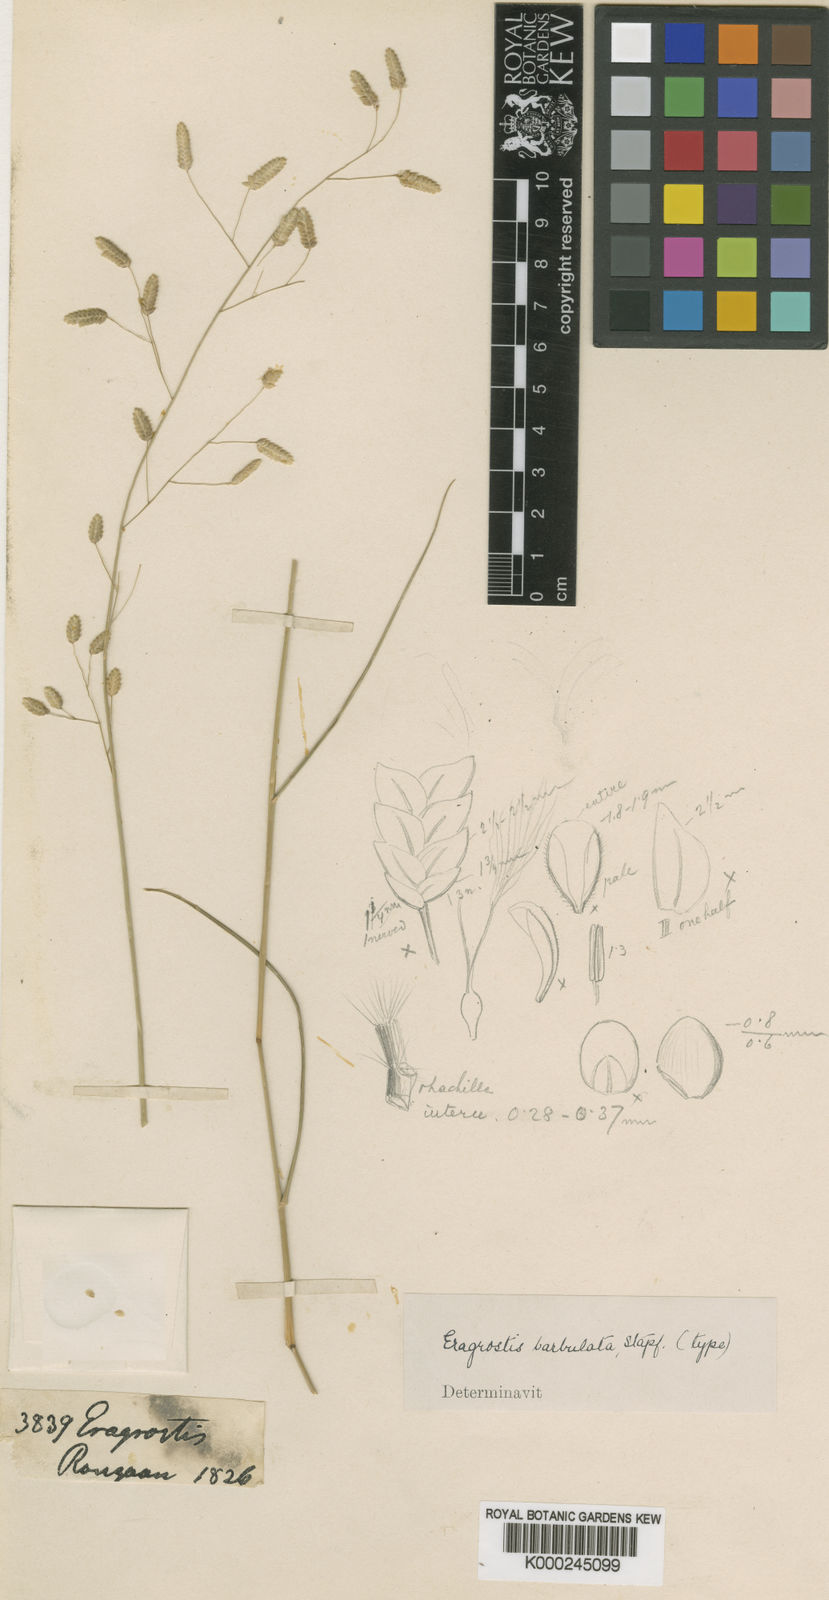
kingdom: Plantae
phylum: Tracheophyta
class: Liliopsida
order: Poales
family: Poaceae
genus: Eragrostis
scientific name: Eragrostis barbulata
